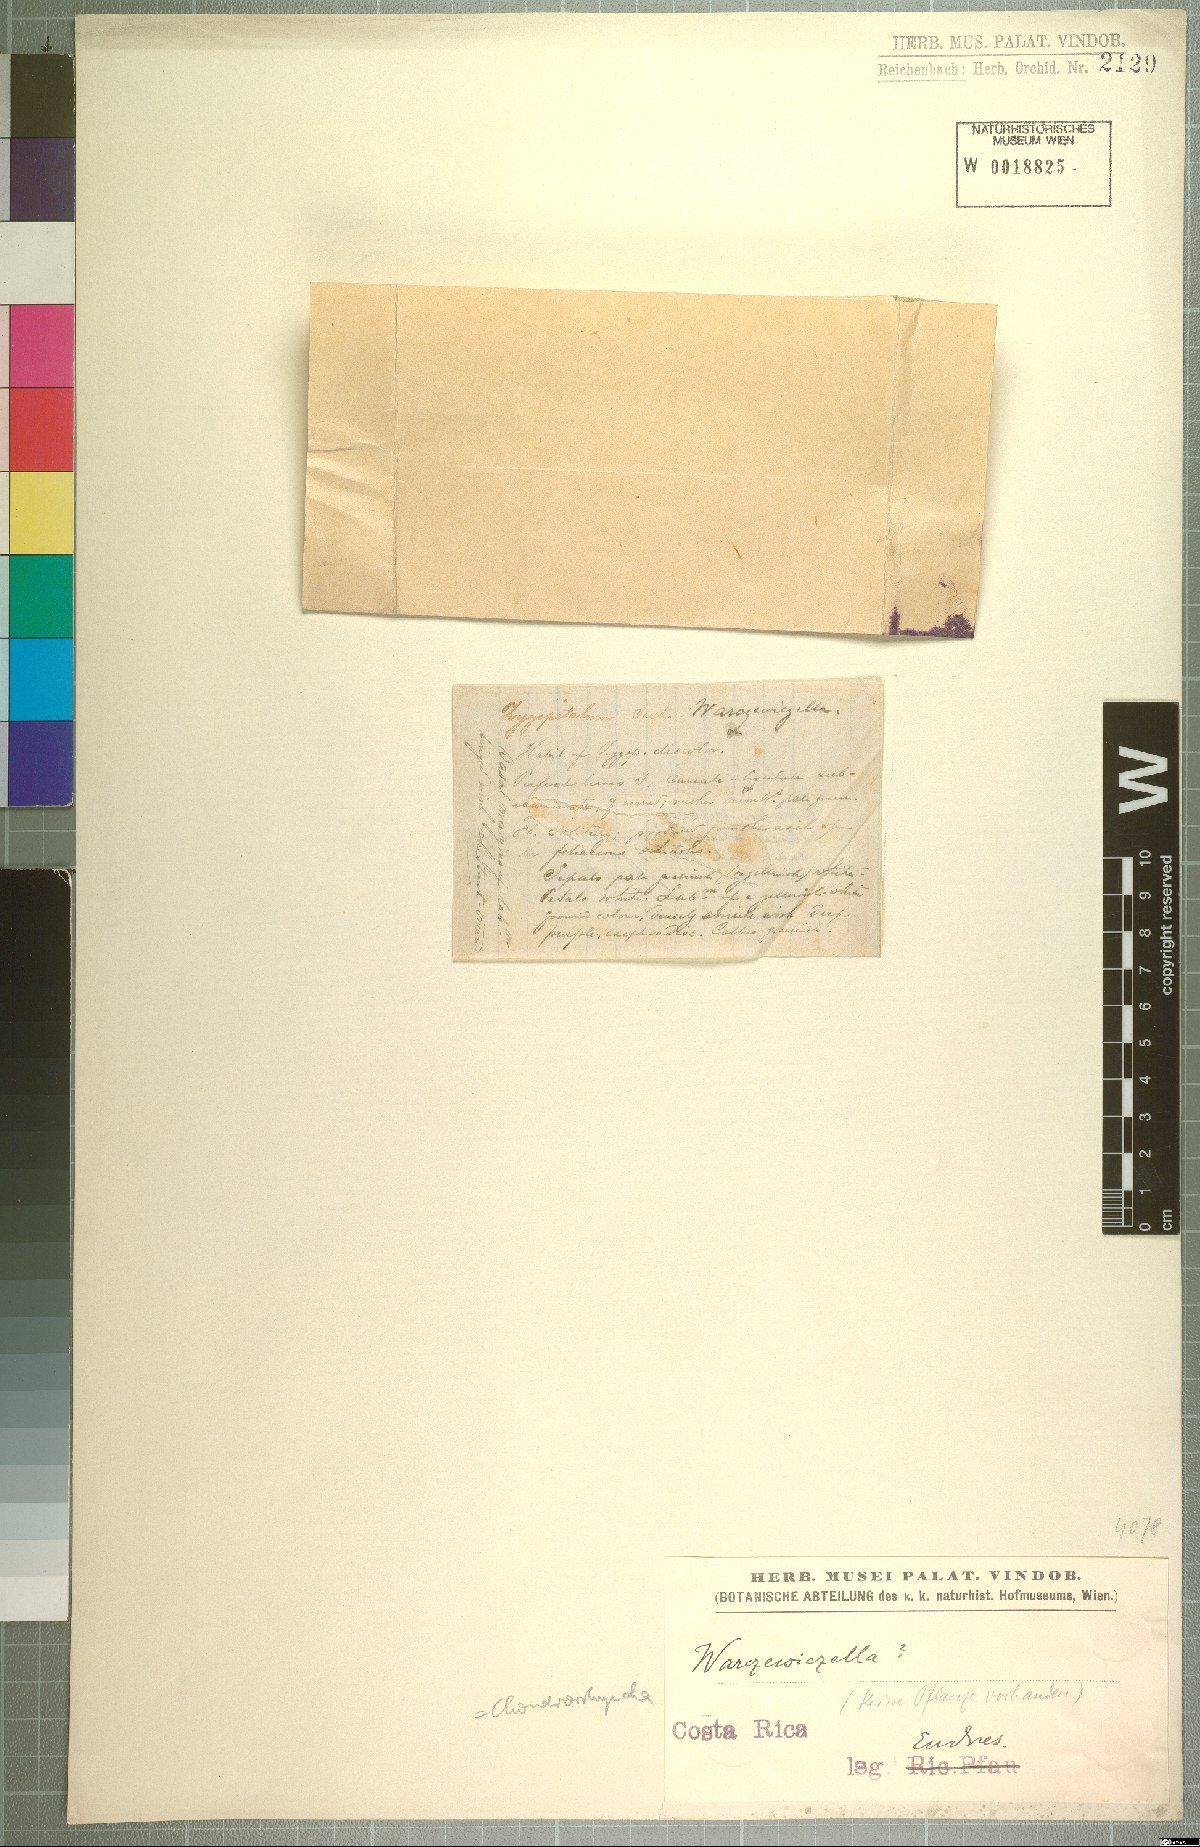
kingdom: Plantae
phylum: Tracheophyta
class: Liliopsida
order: Asparagales
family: Orchidaceae
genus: Chondrorhyncha
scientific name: Chondrorhyncha
